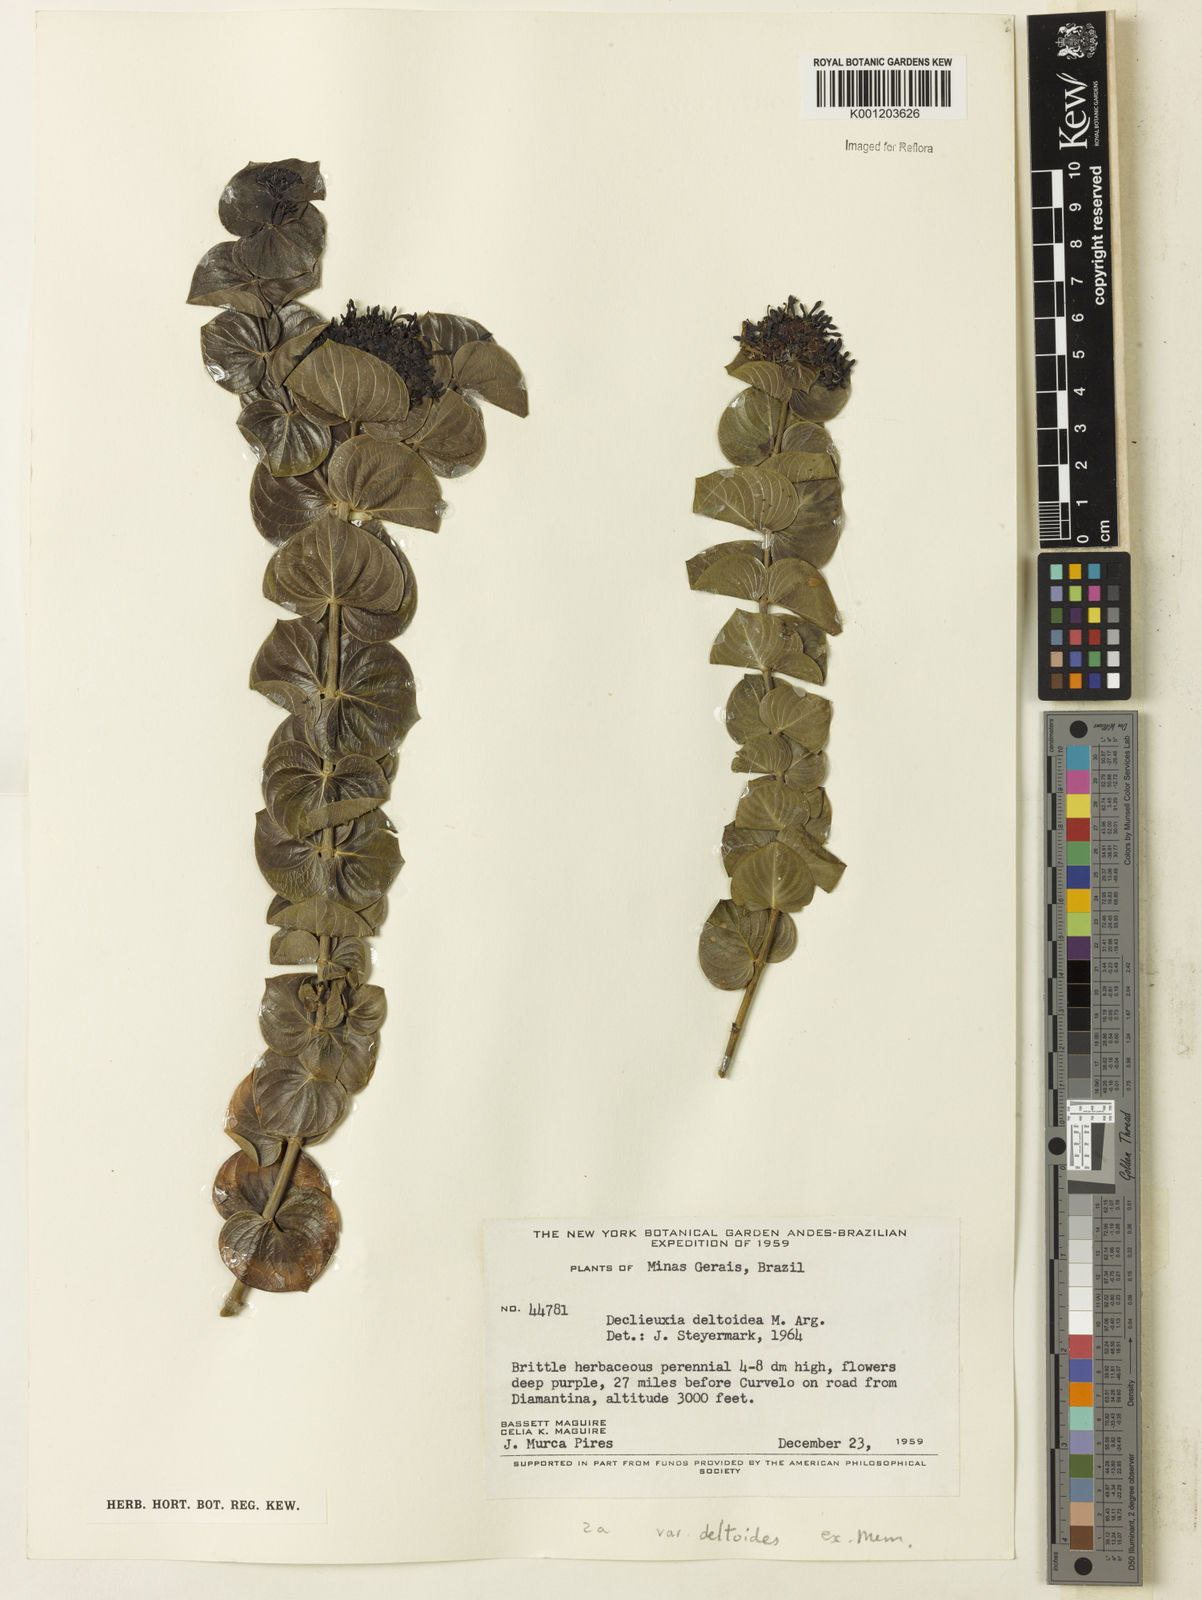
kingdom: Plantae
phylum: Tracheophyta
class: Magnoliopsida
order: Gentianales
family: Rubiaceae
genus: Declieuxia
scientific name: Declieuxia
